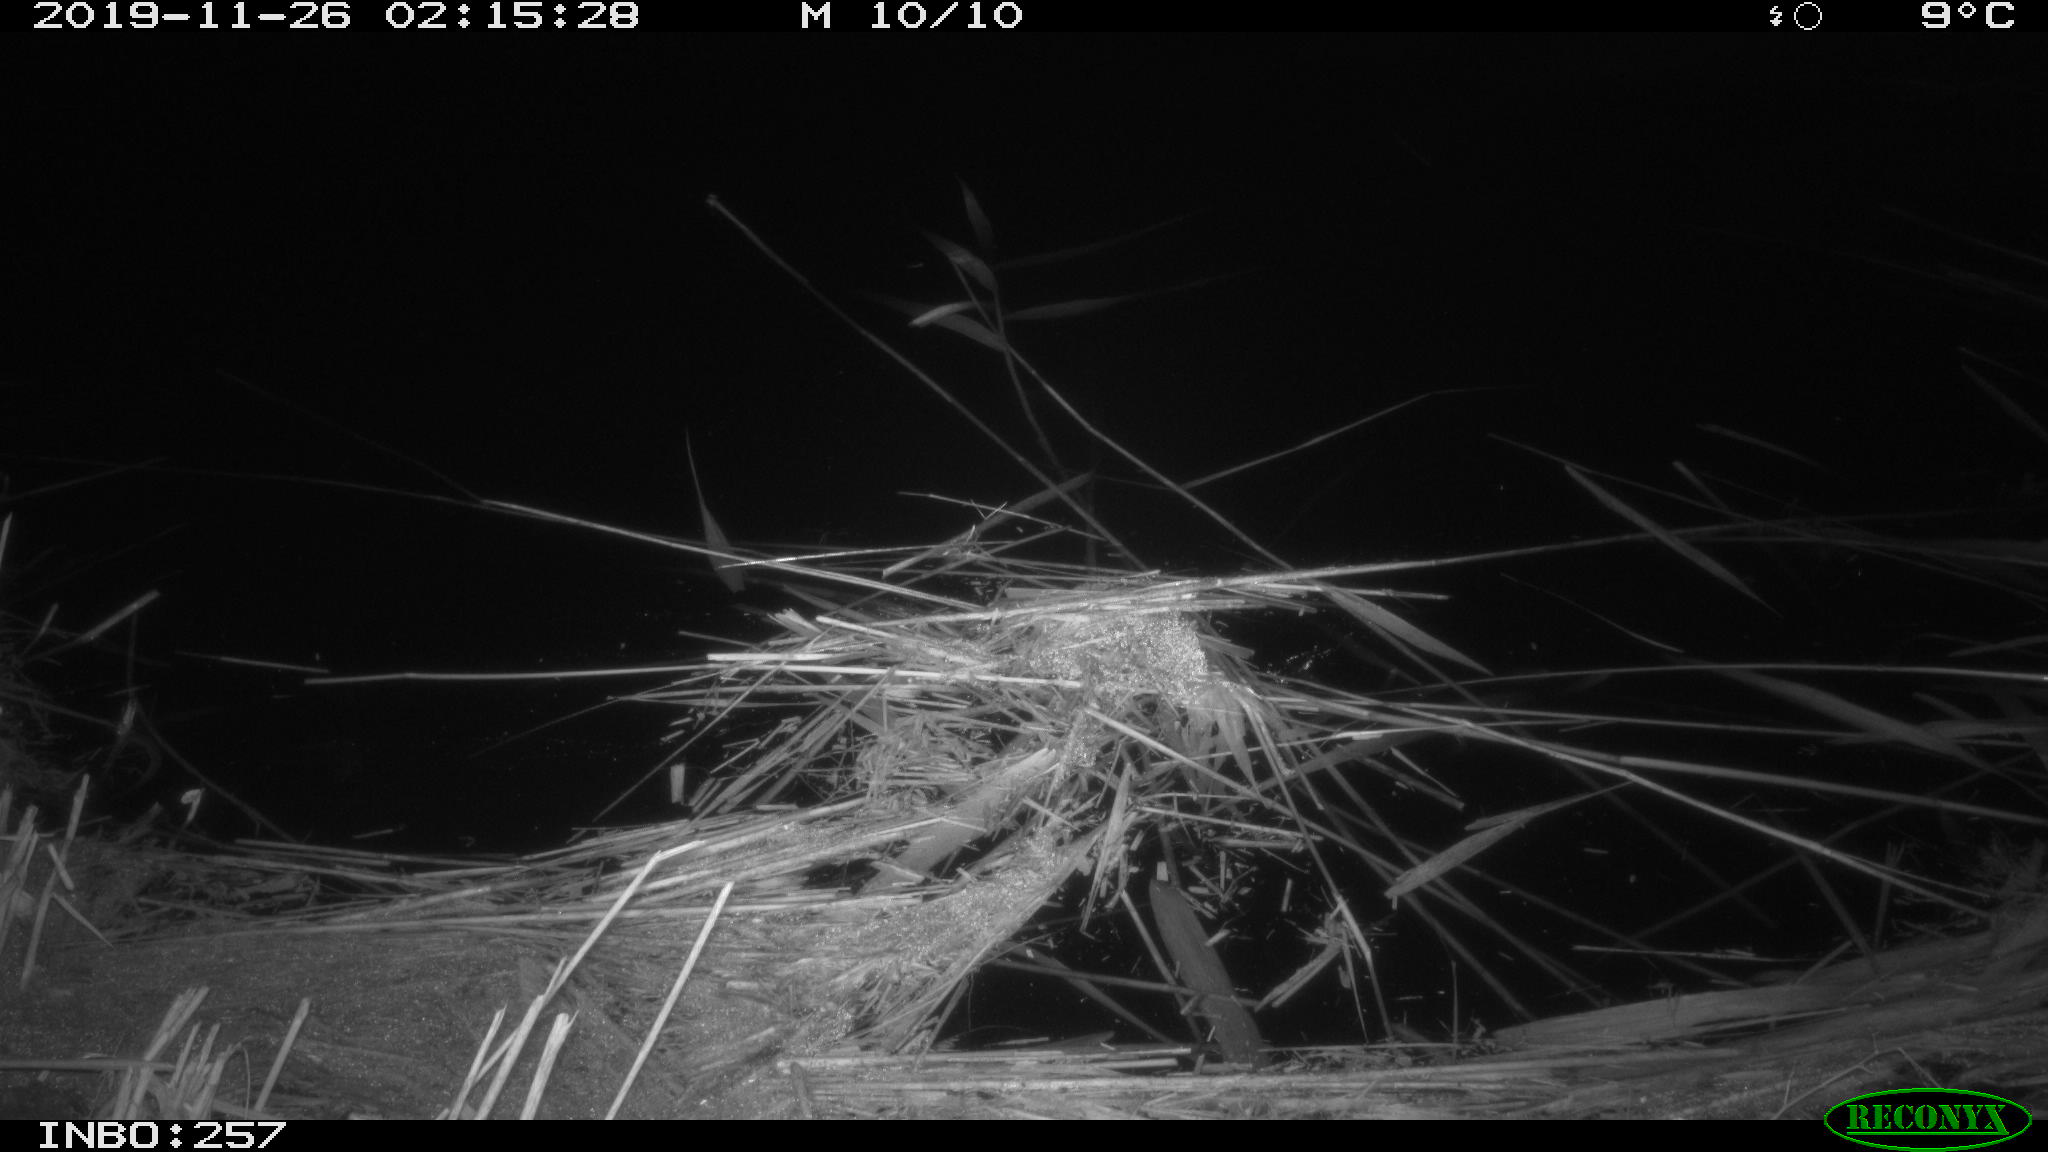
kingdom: Animalia
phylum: Chordata
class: Mammalia
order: Rodentia
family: Muridae
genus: Rattus
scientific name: Rattus norvegicus
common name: Brown rat
